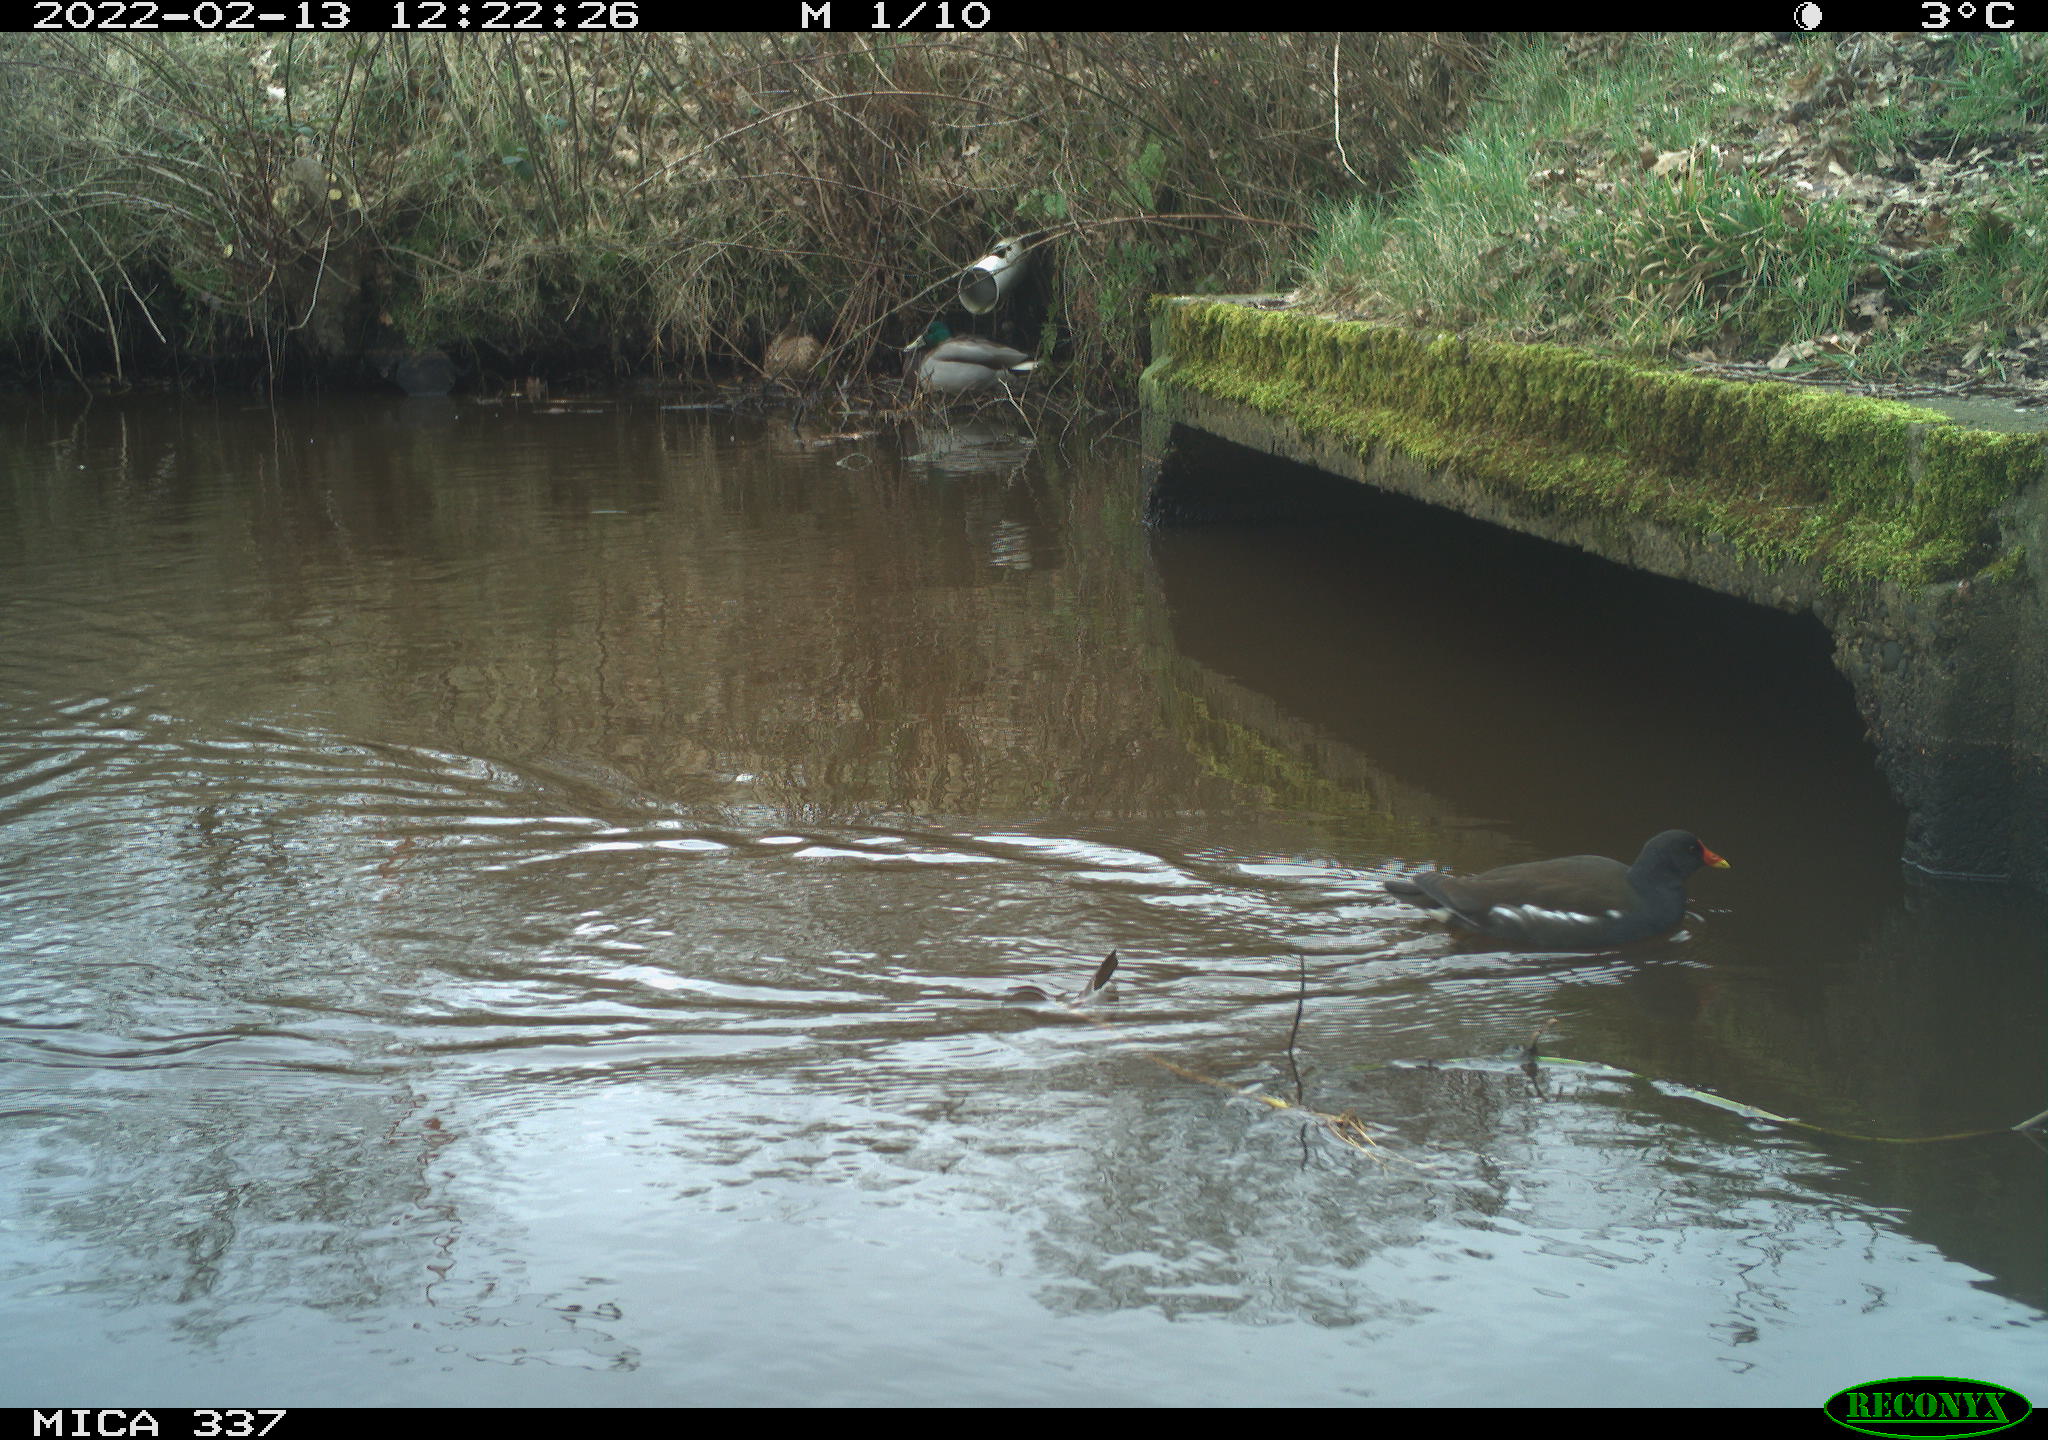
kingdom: Animalia
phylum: Chordata
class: Aves
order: Anseriformes
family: Anatidae
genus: Anas
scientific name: Anas platyrhynchos
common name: Mallard
